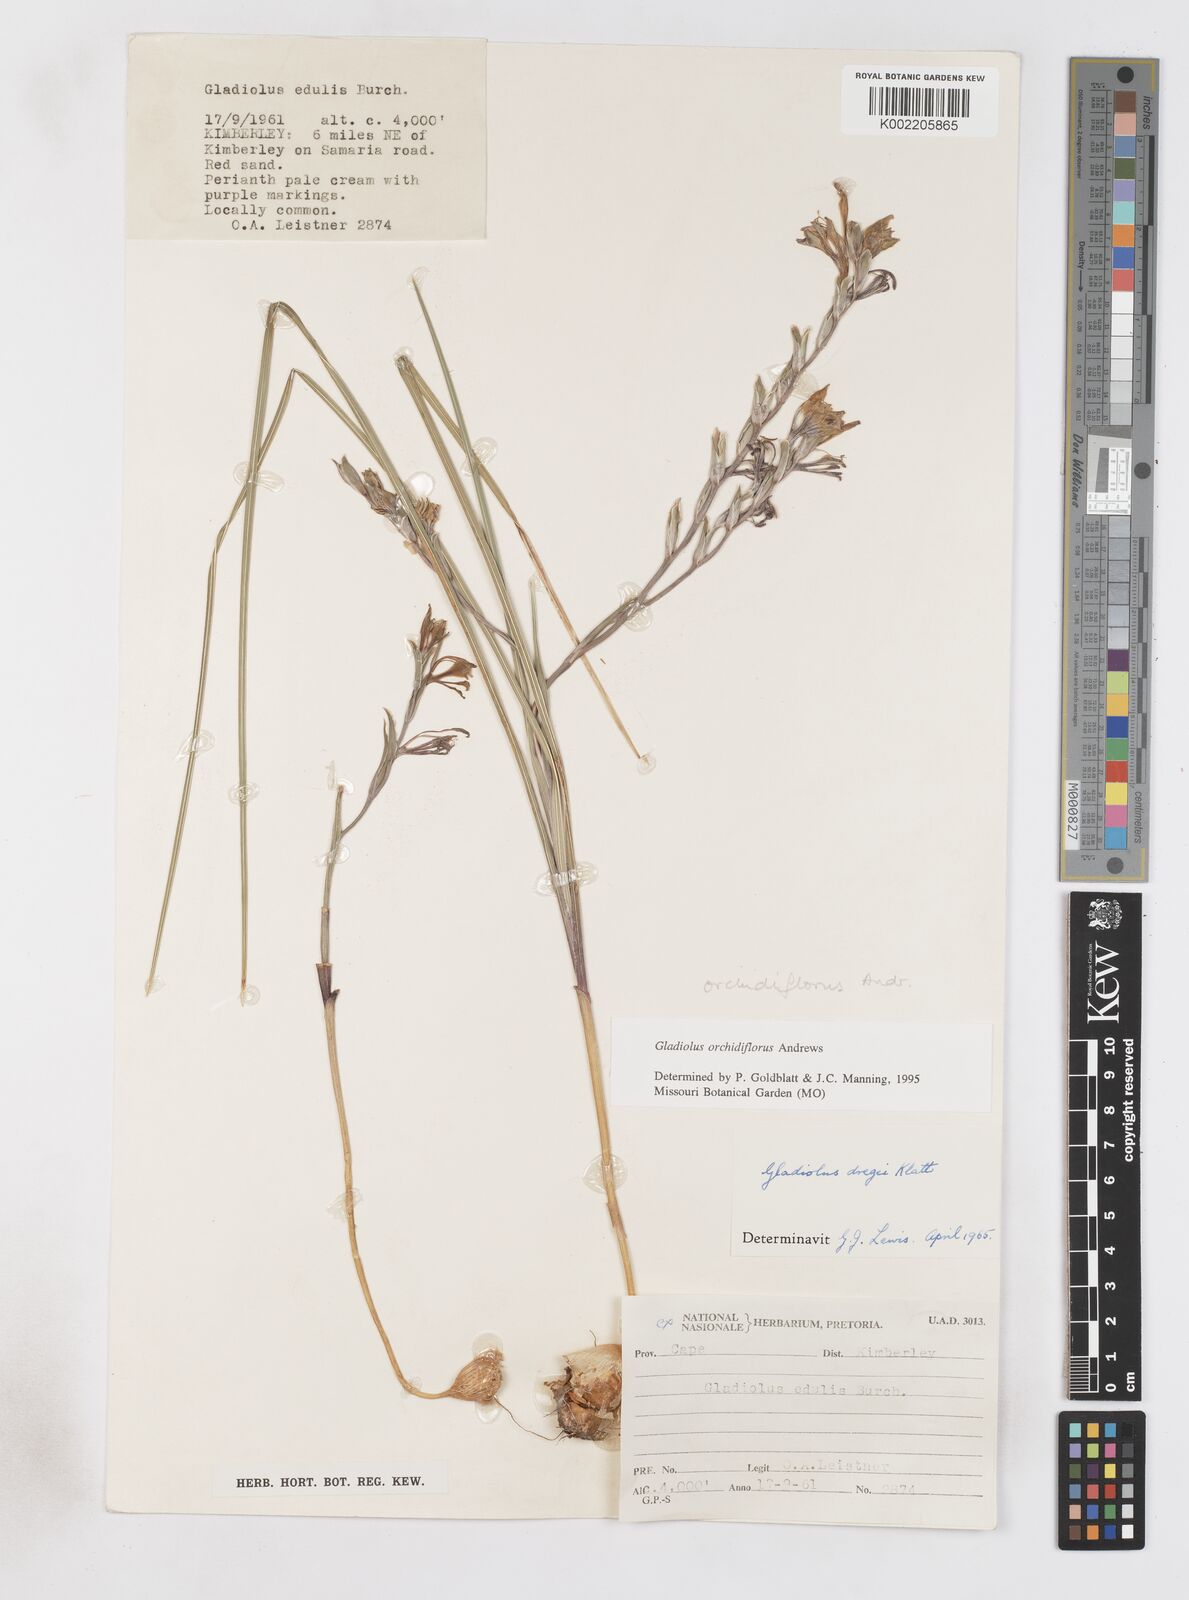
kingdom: Plantae
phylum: Tracheophyta
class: Liliopsida
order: Asparagales
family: Iridaceae
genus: Gladiolus
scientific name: Gladiolus orchidiflorus
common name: Gray kalkoentjie
